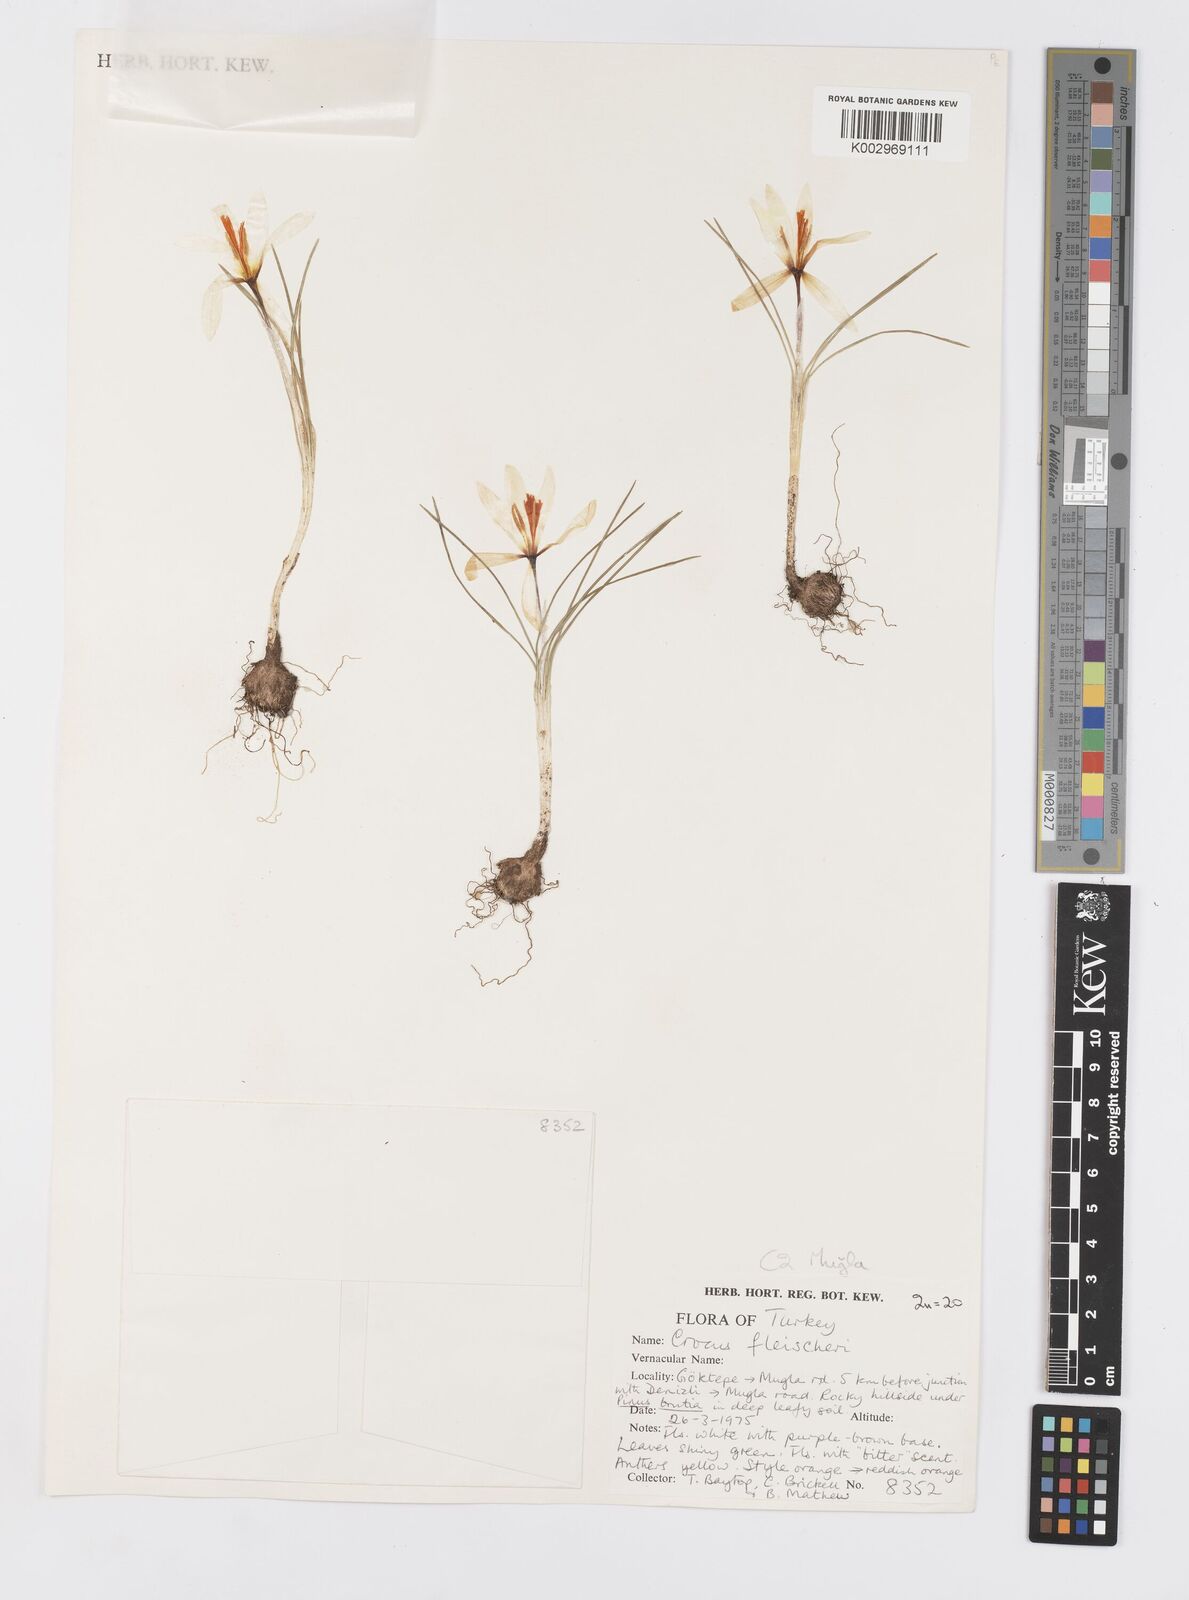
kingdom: Plantae
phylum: Tracheophyta
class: Liliopsida
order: Asparagales
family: Iridaceae
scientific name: Iridaceae
